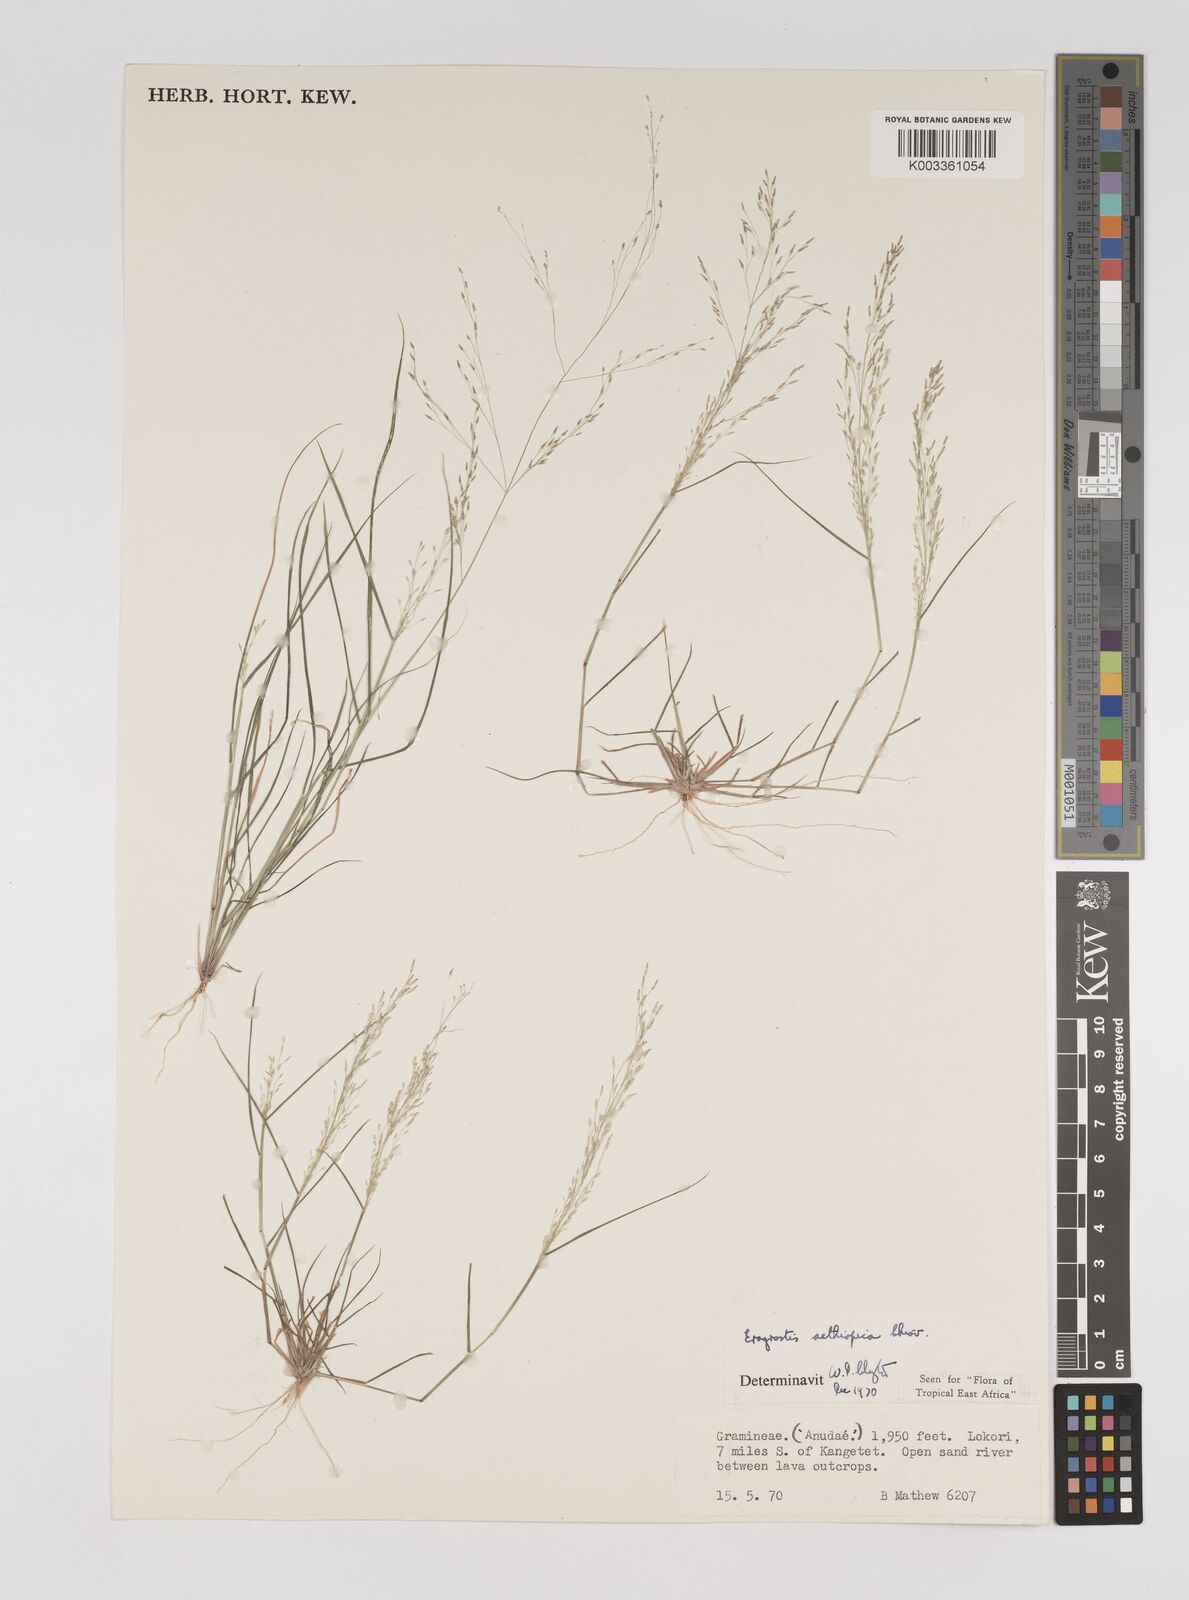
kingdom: Plantae
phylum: Tracheophyta
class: Liliopsida
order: Poales
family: Poaceae
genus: Eragrostis
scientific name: Eragrostis aethiopica
